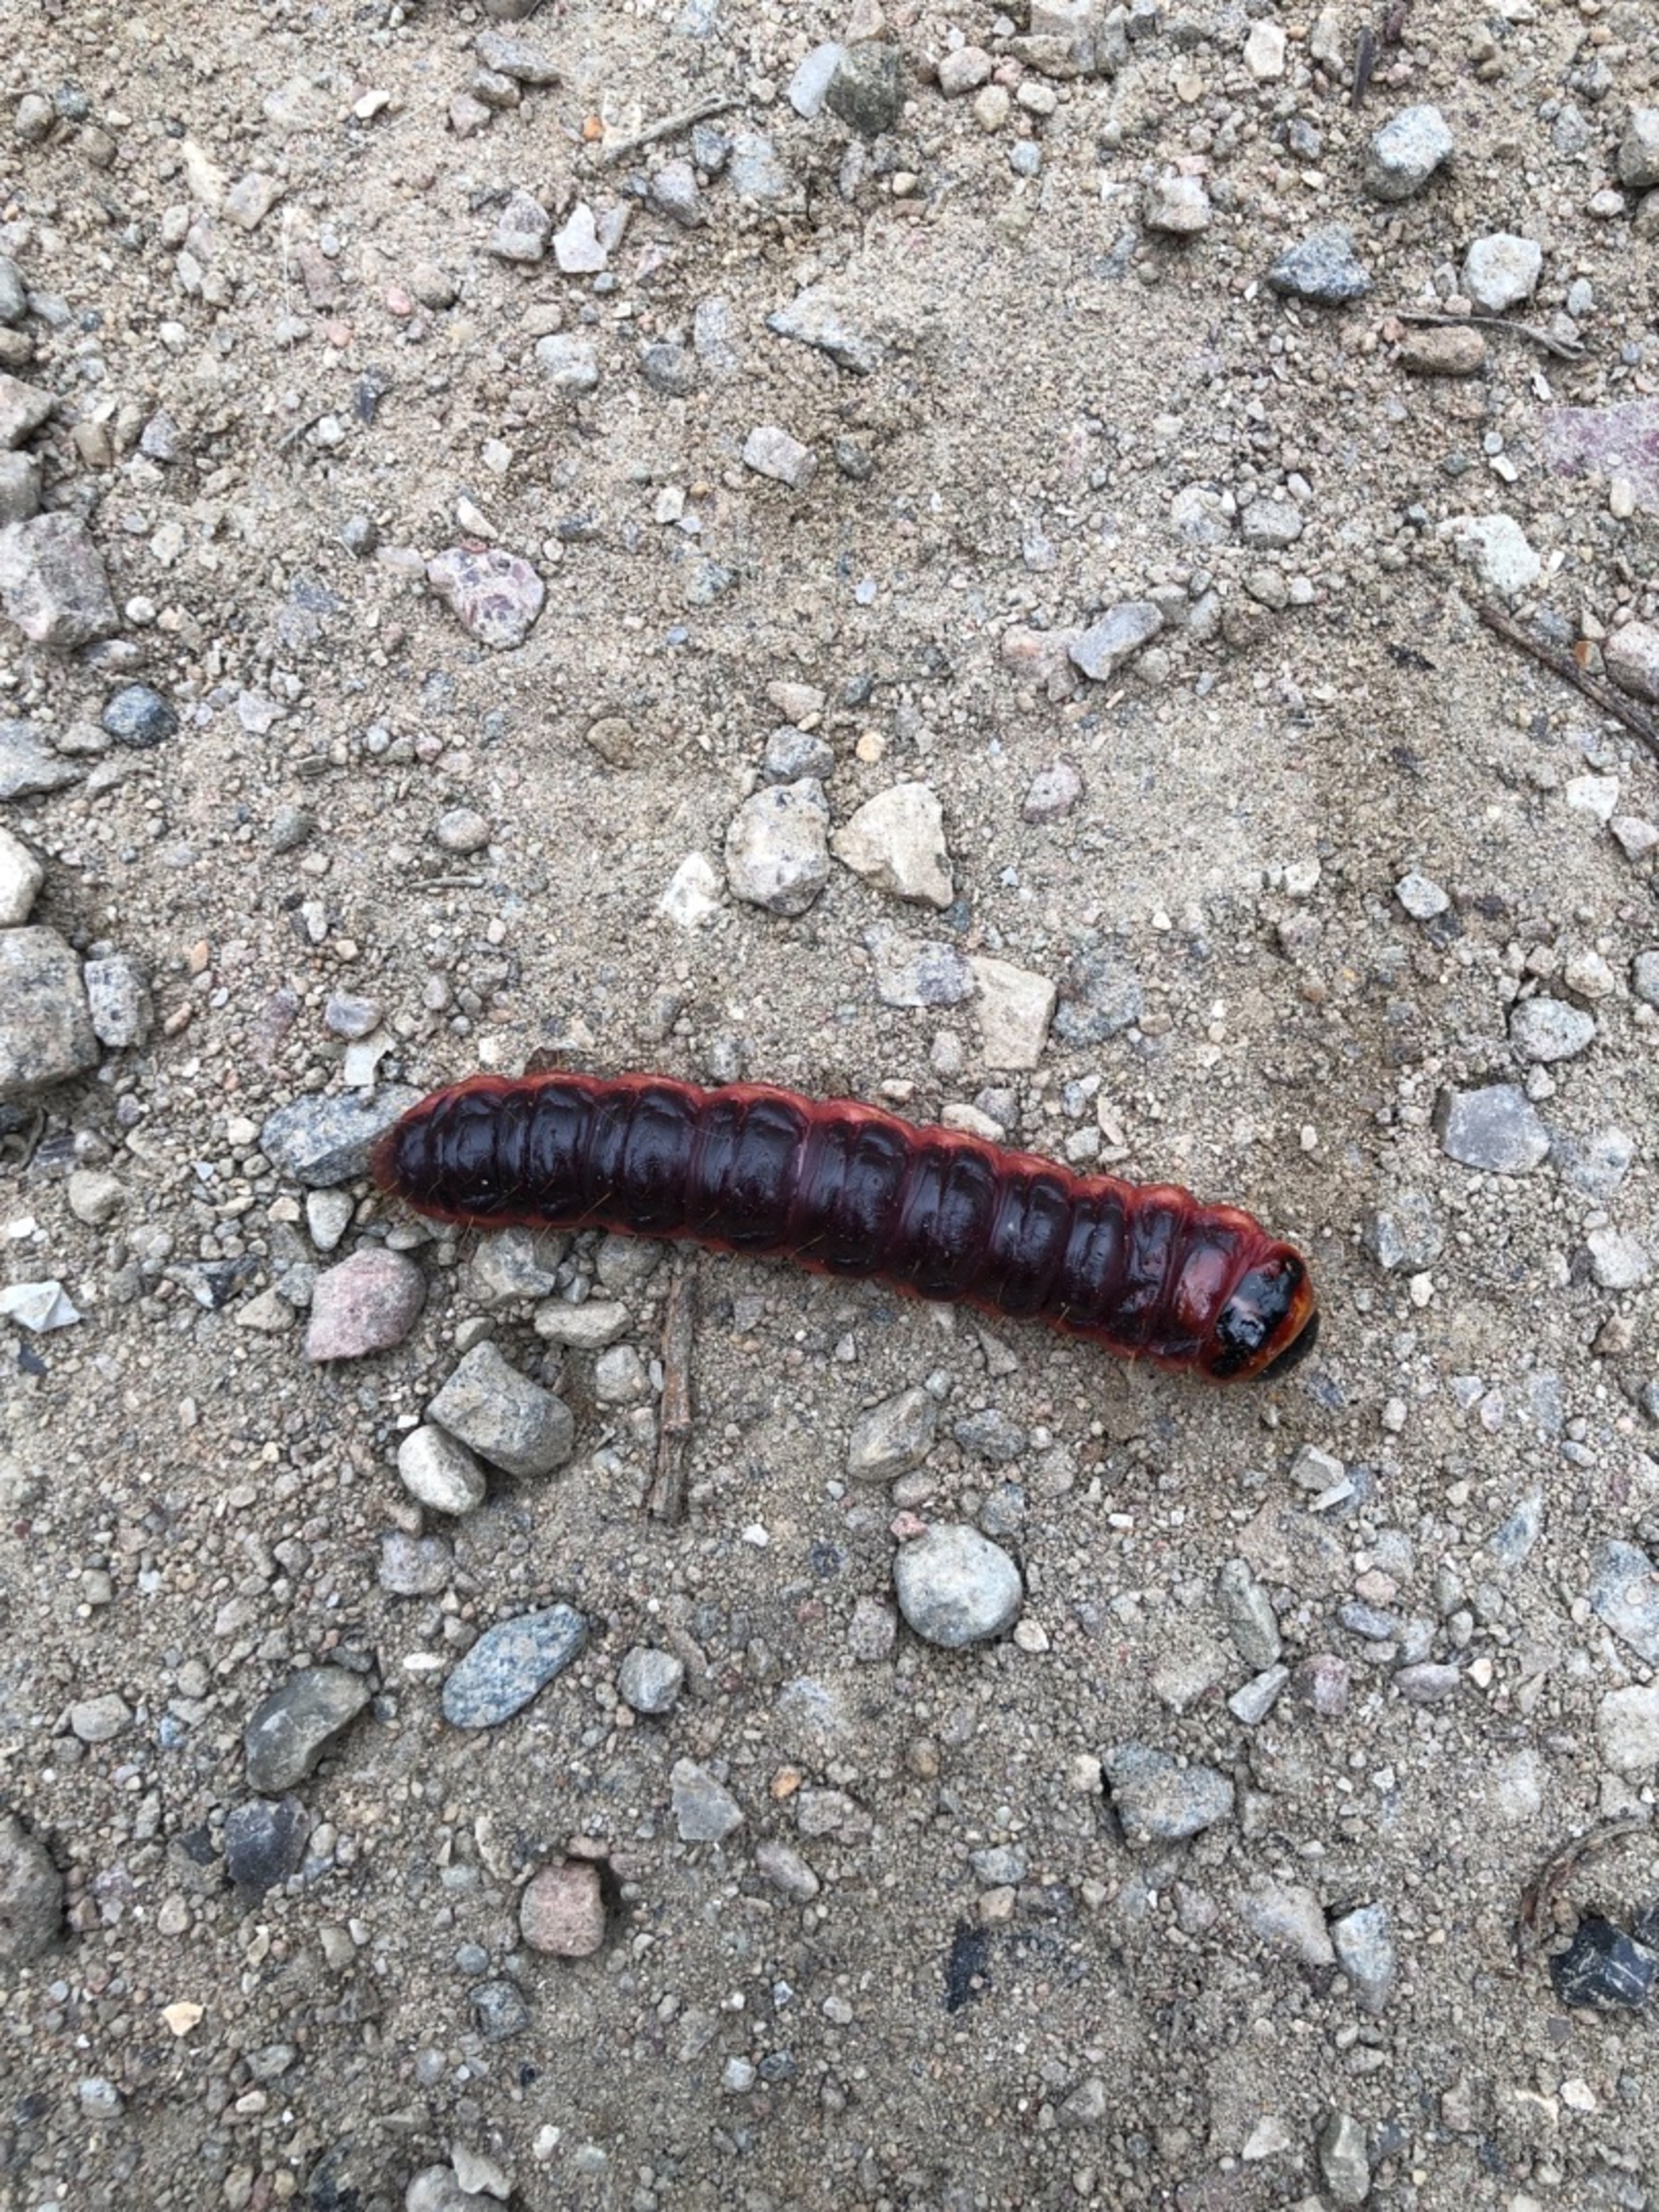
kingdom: Animalia
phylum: Arthropoda
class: Insecta
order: Lepidoptera
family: Cossidae
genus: Cossus
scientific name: Cossus cossus
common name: Pileborer
